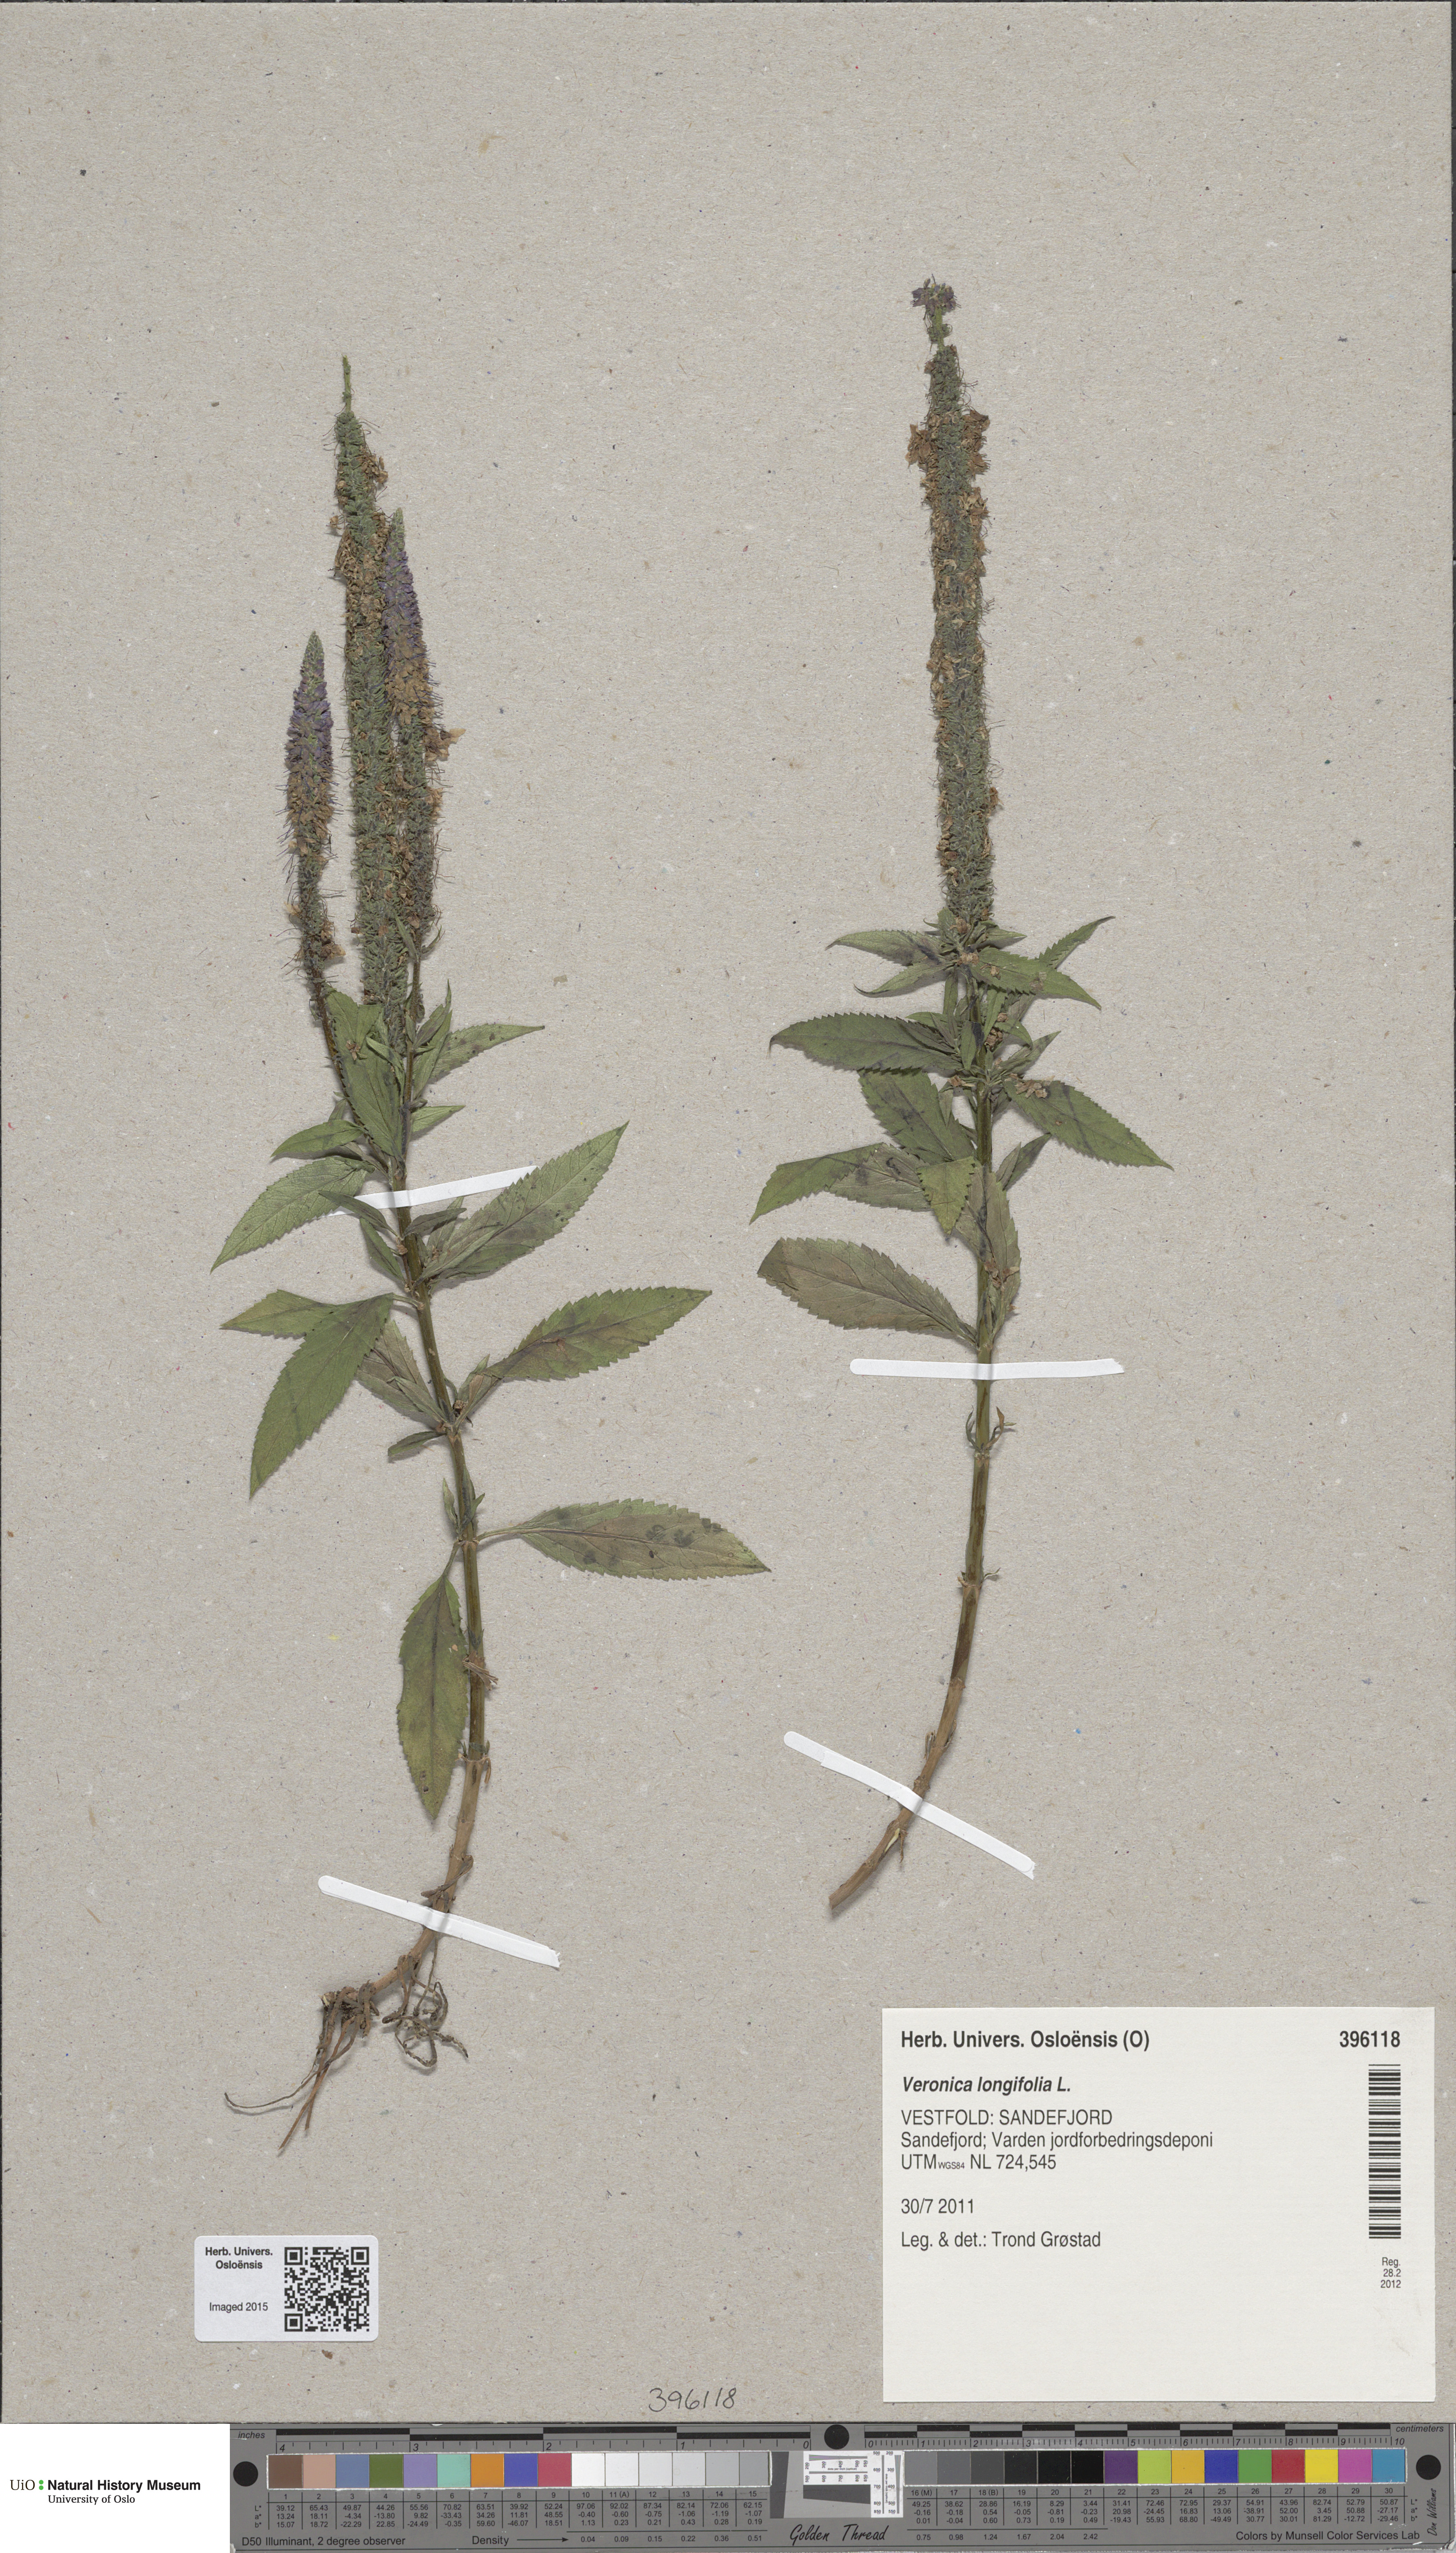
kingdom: Plantae
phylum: Tracheophyta
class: Magnoliopsida
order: Lamiales
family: Plantaginaceae
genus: Veronica
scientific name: Veronica longifolia
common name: Garden speedwell
